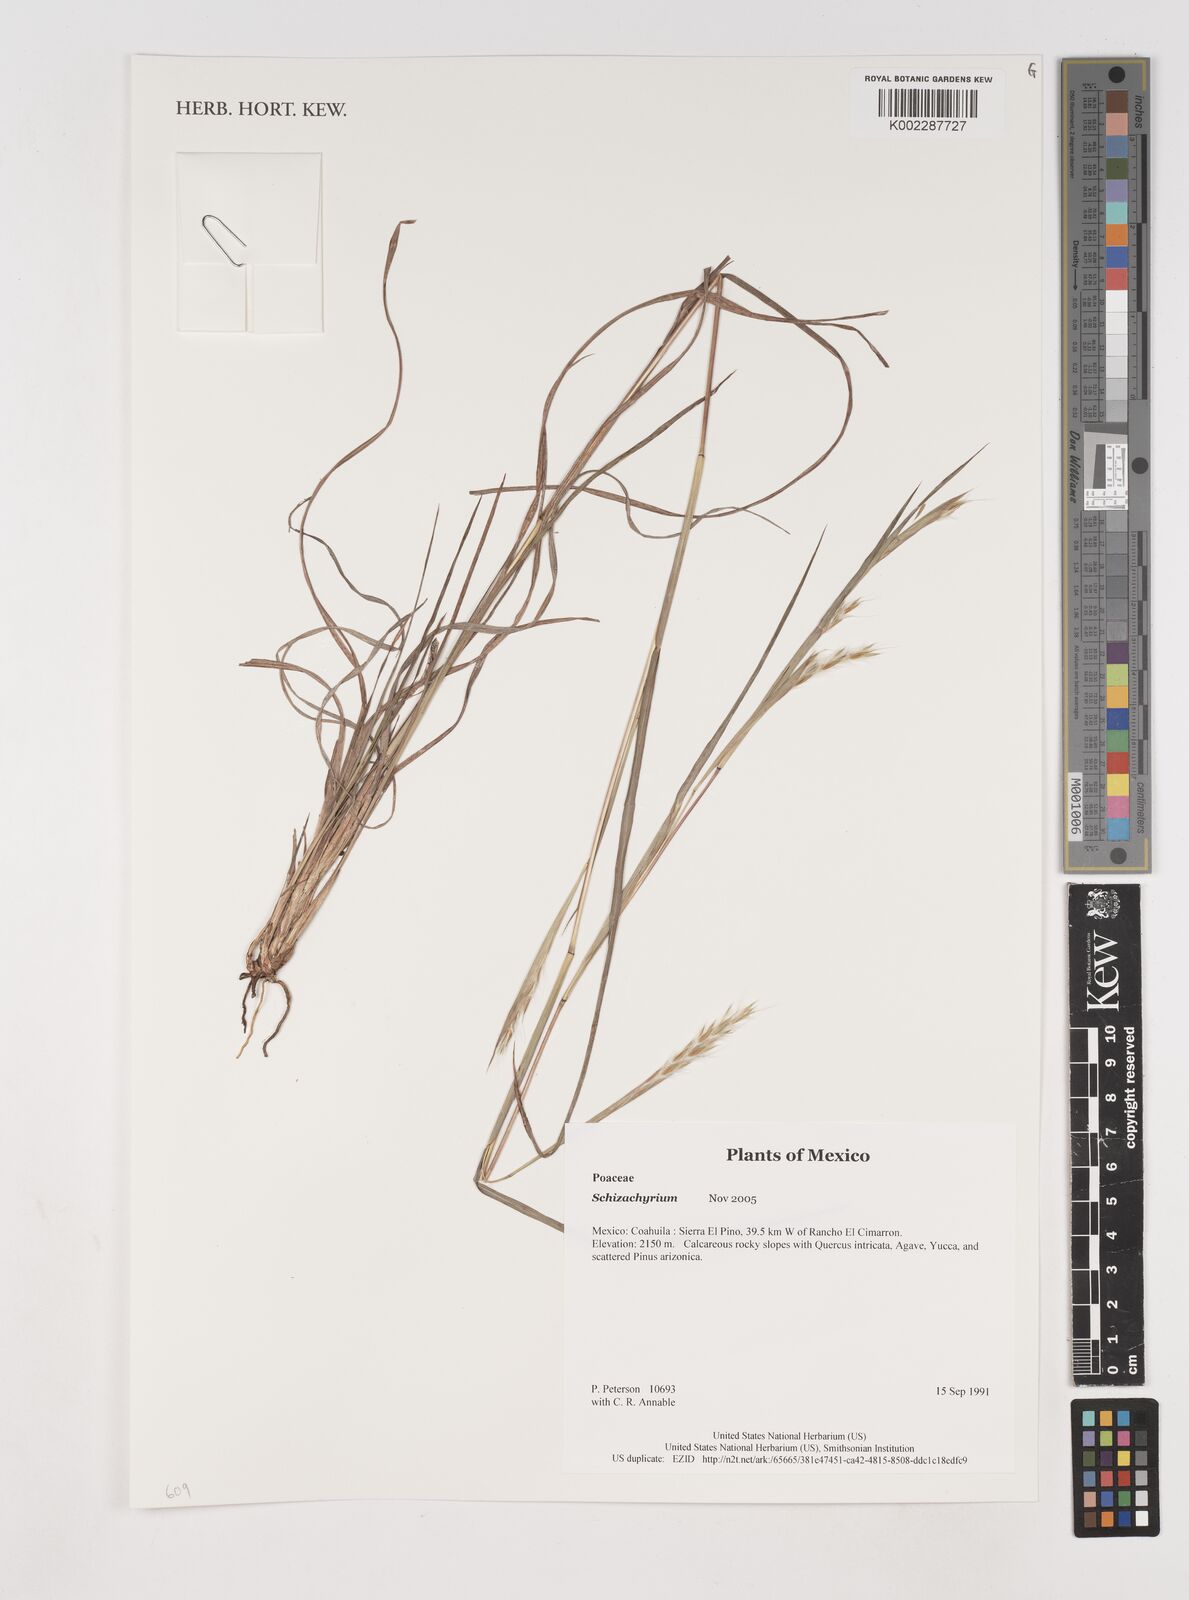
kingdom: Plantae
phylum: Tracheophyta
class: Liliopsida
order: Poales
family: Poaceae
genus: Schizachyrium
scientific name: Schizachyrium
